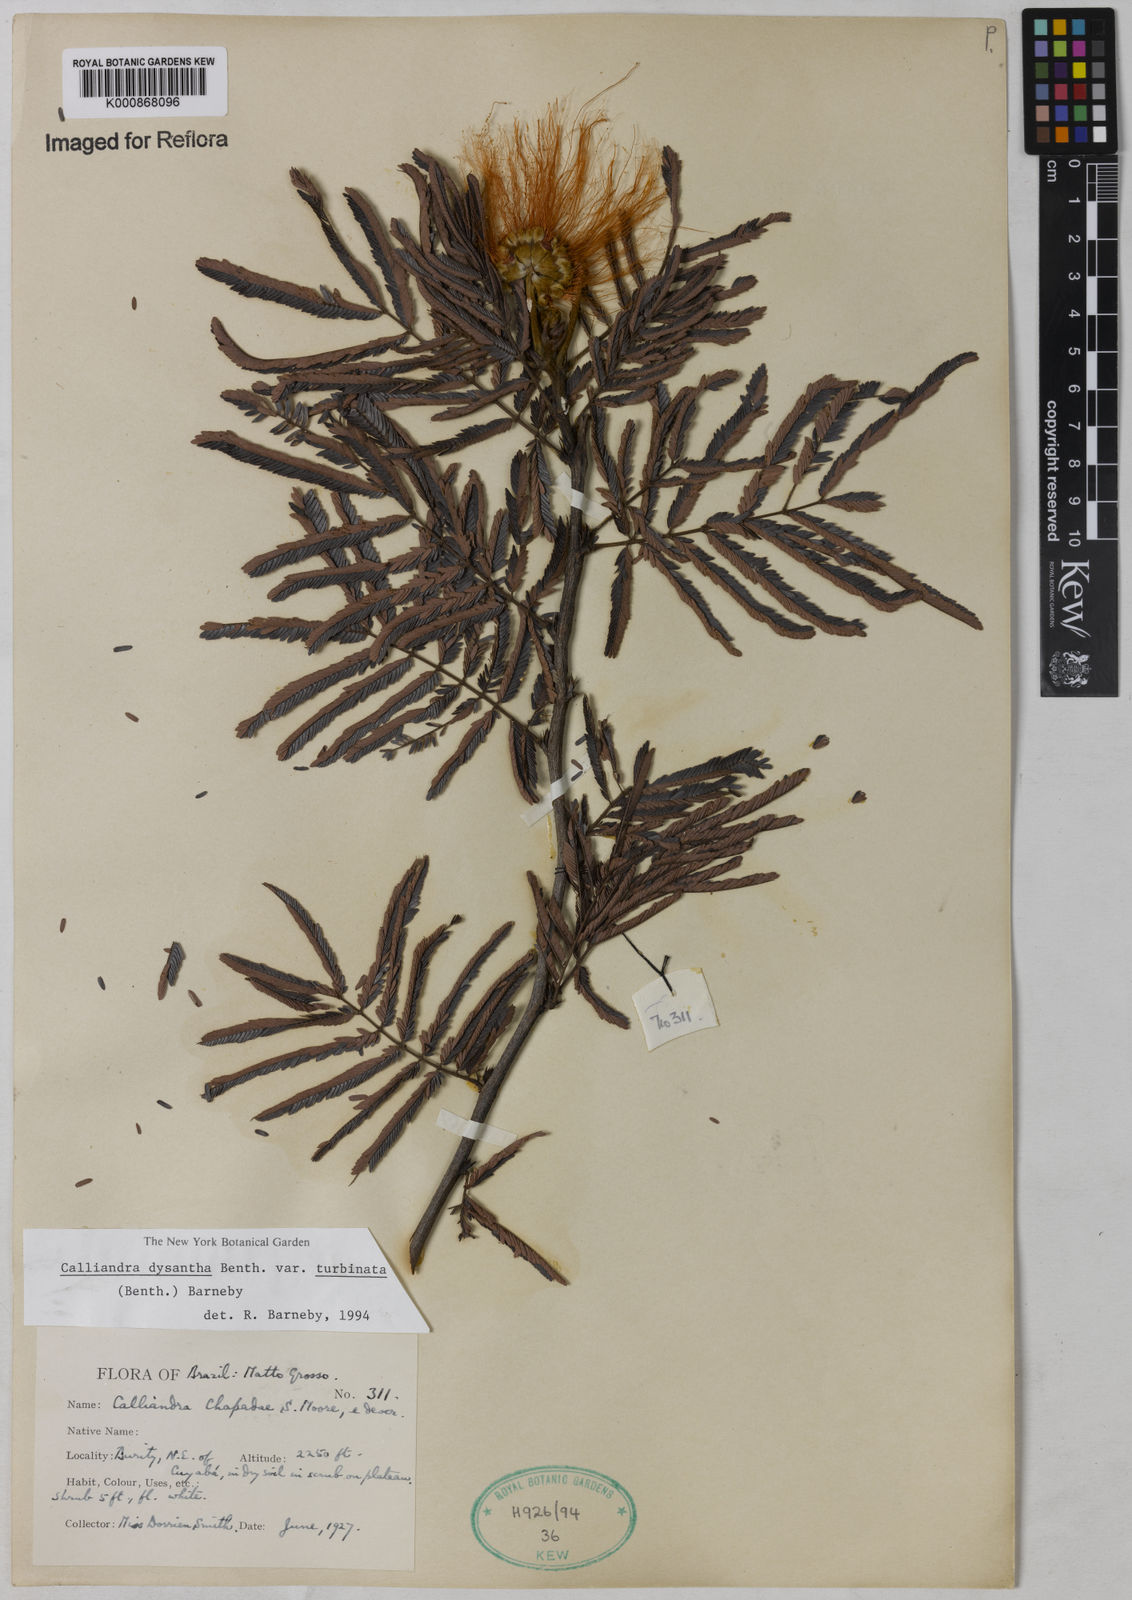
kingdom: Plantae
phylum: Tracheophyta
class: Magnoliopsida
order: Fabales
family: Fabaceae
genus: Calliandra
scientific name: Calliandra dysantha
